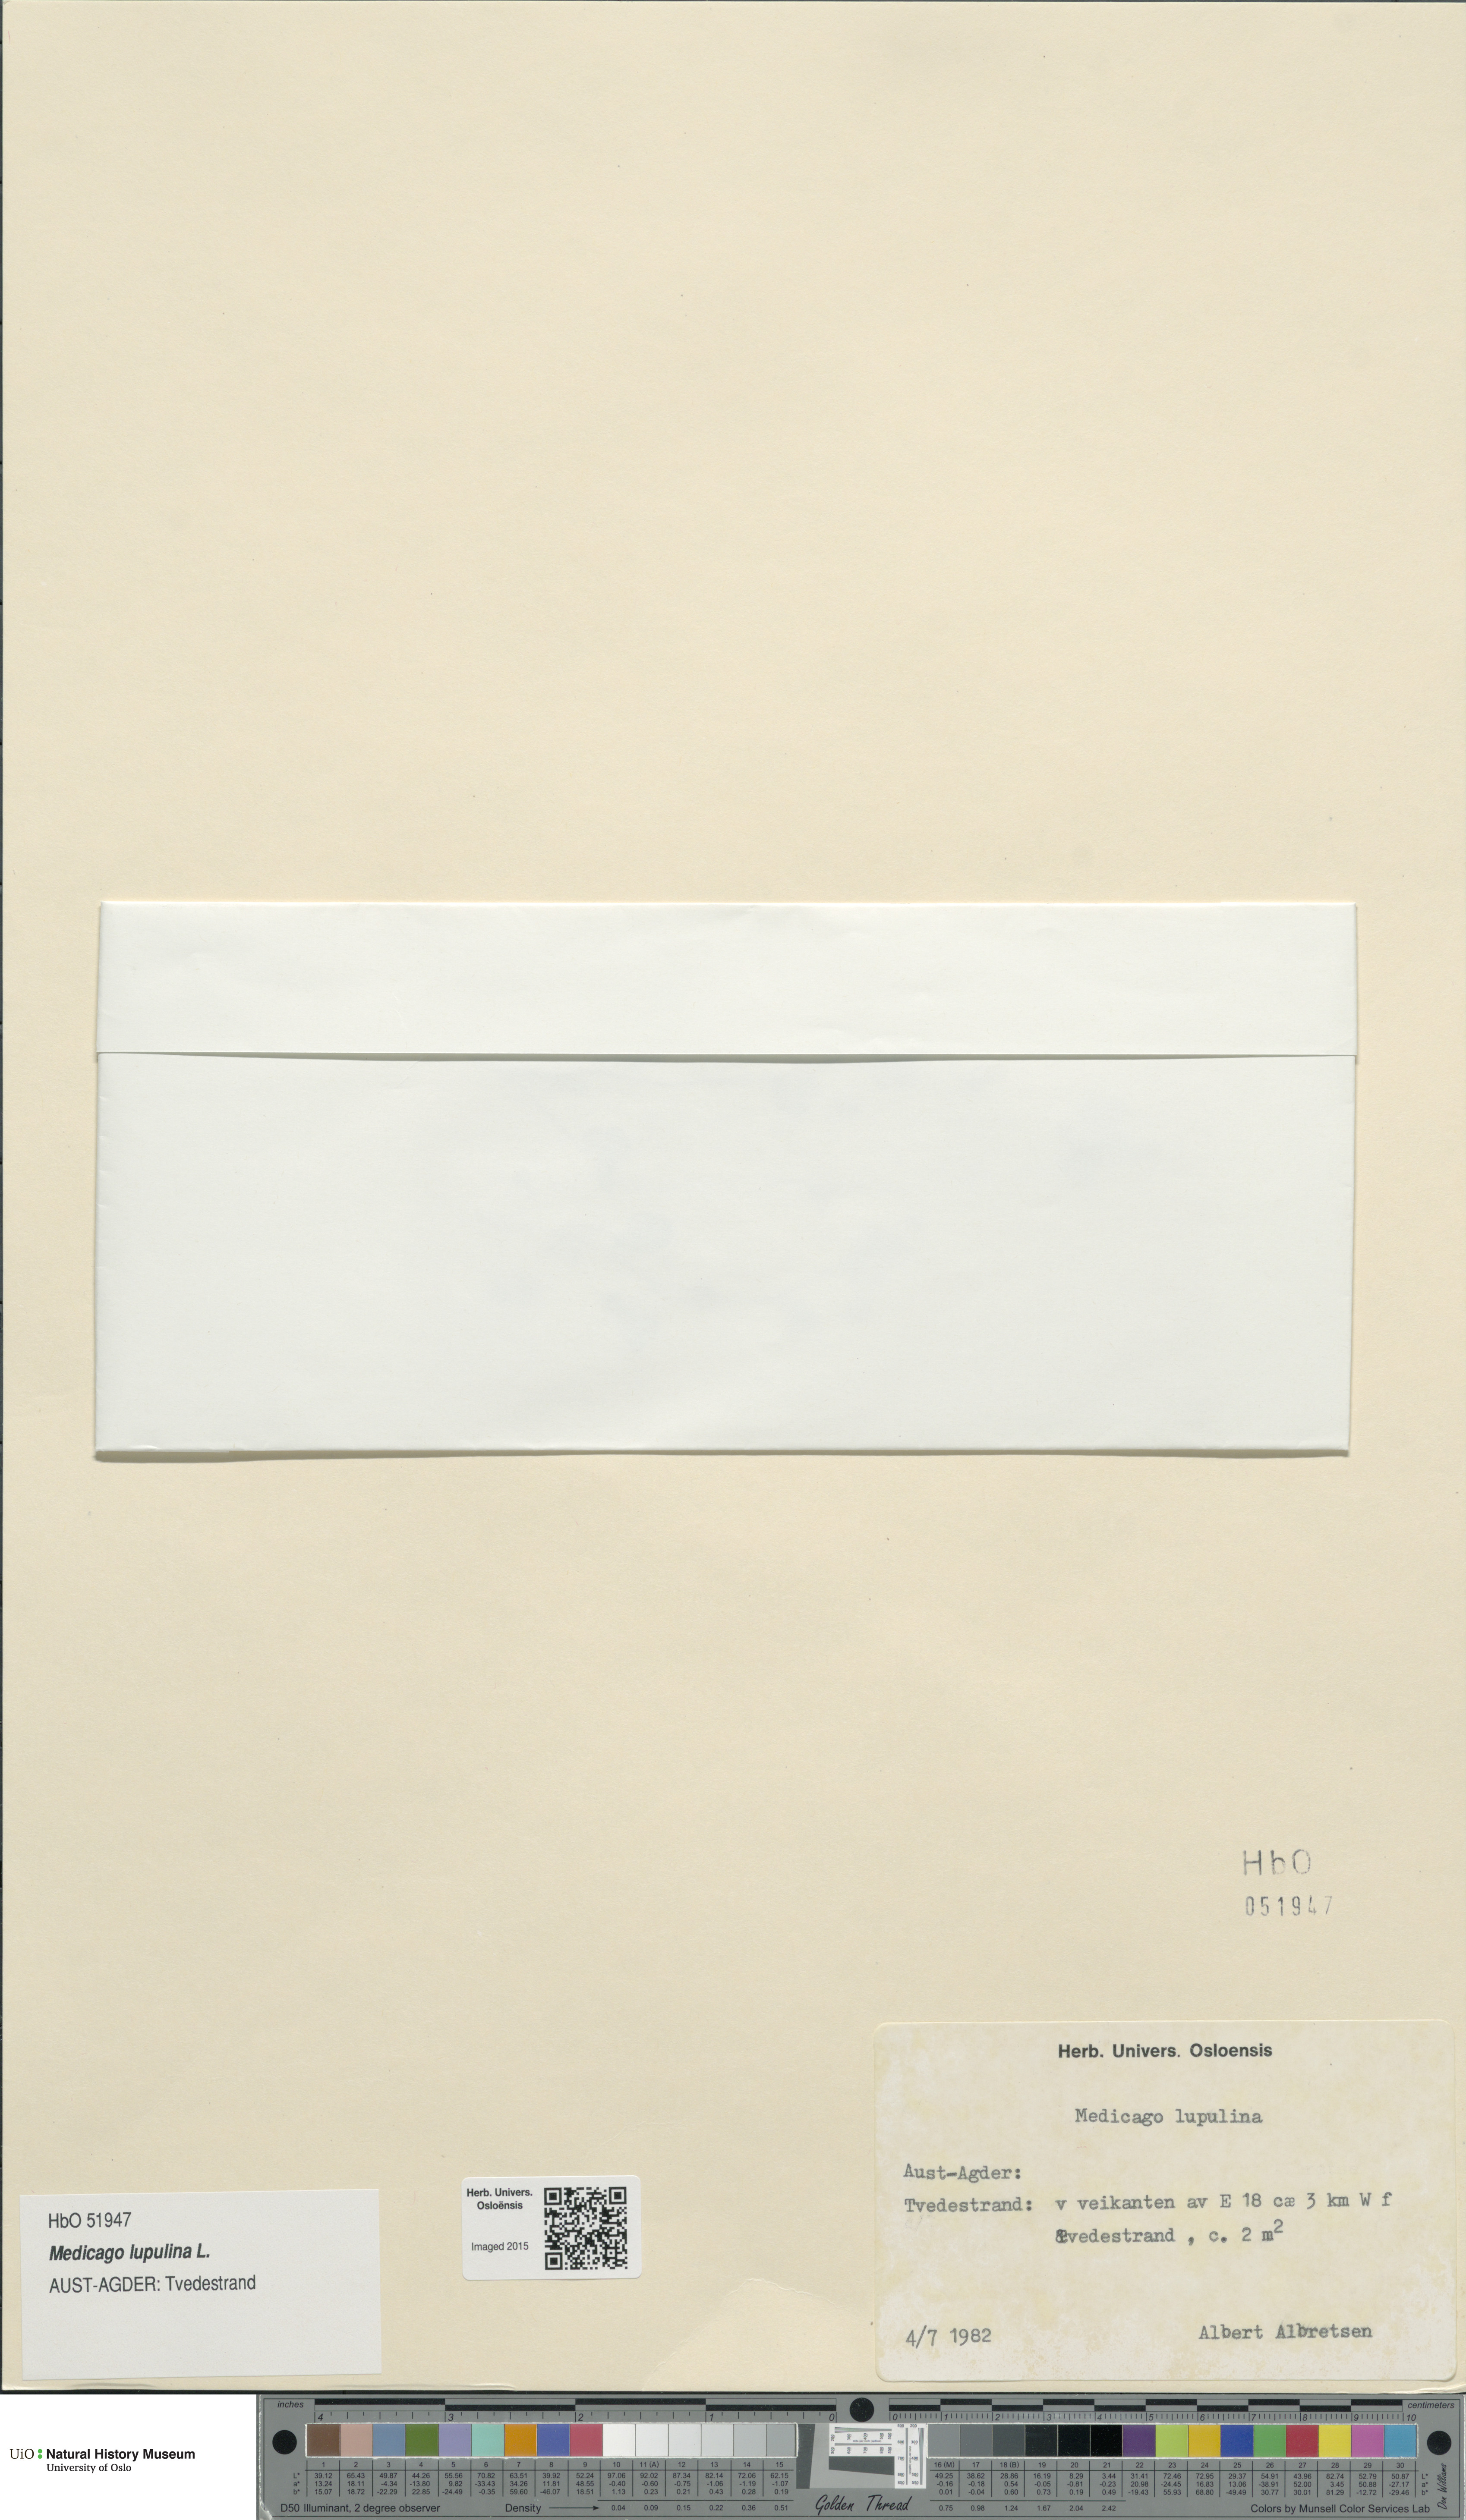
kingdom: Plantae
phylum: Tracheophyta
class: Magnoliopsida
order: Fabales
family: Fabaceae
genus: Medicago
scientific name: Medicago lupulina
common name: Black medick
